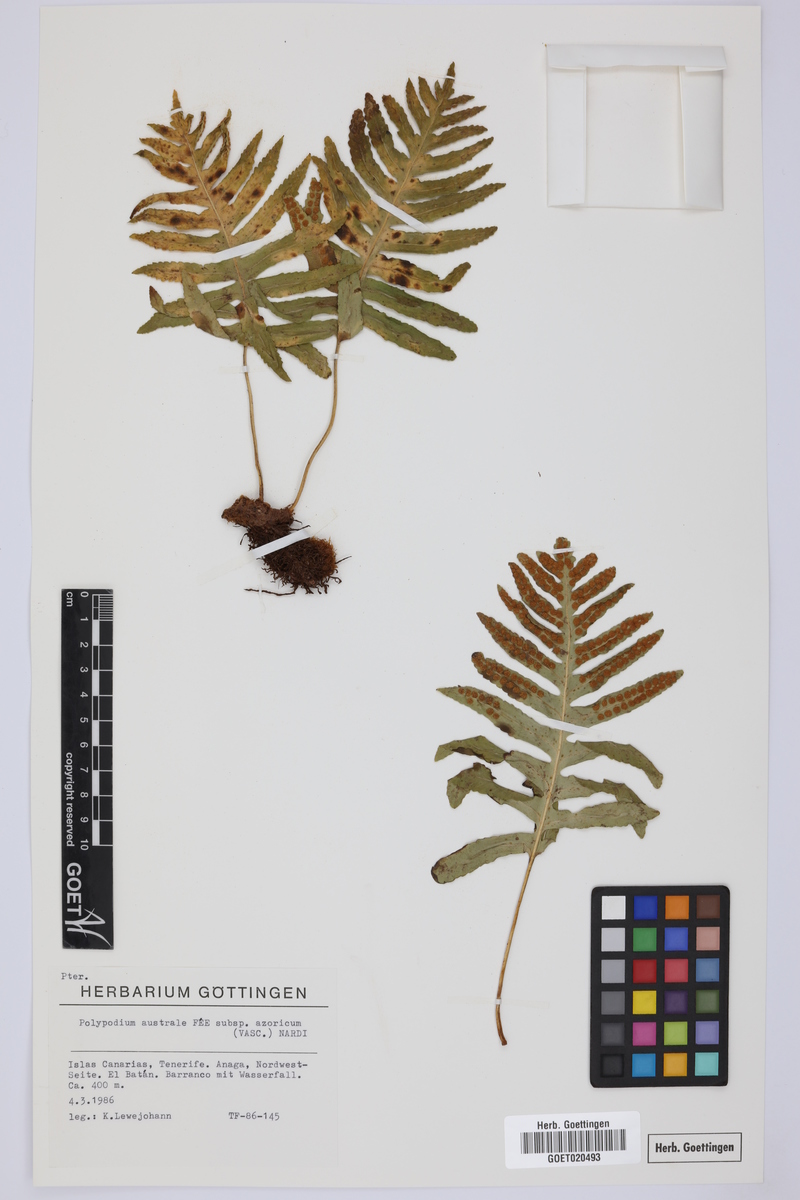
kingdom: Plantae
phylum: Tracheophyta
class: Polypodiopsida
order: Polypodiales
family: Polypodiaceae
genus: Polypodium
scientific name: Polypodium macaronesicum
